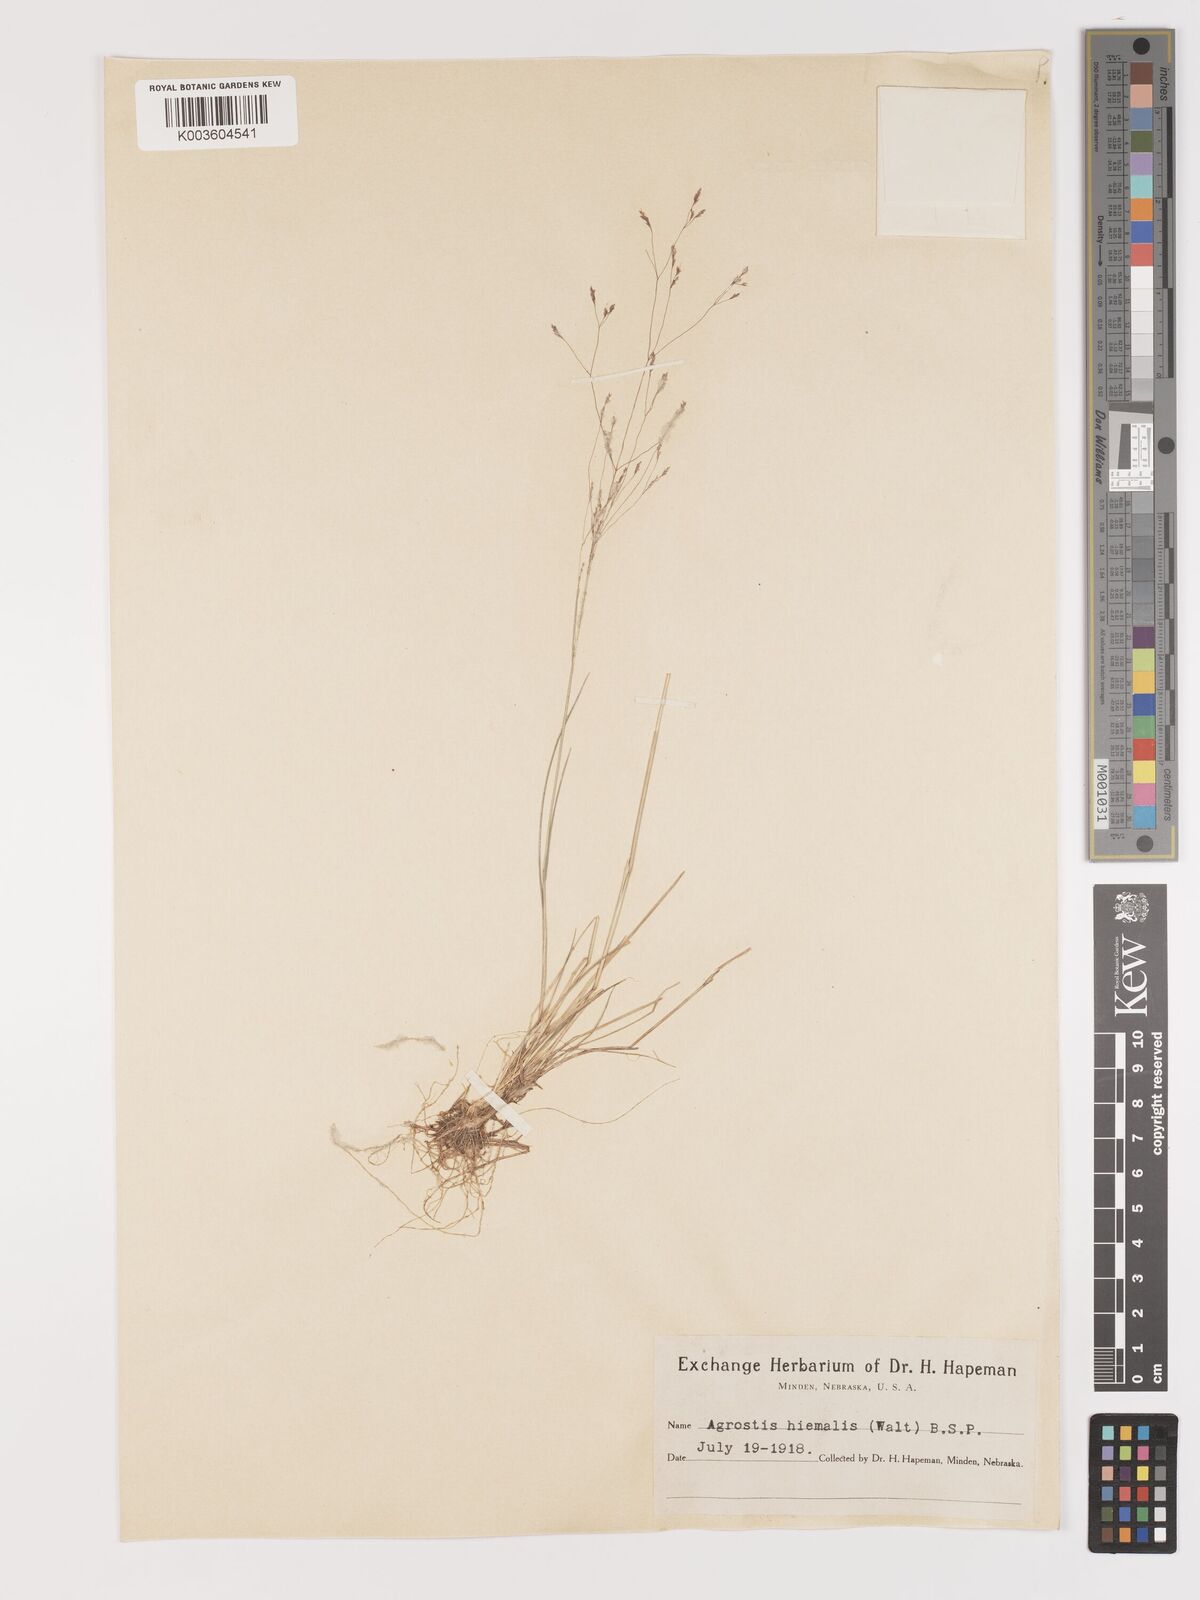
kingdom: Plantae
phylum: Tracheophyta
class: Liliopsida
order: Poales
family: Poaceae
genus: Agrostis
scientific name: Agrostis hyemalis
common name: Small bent
